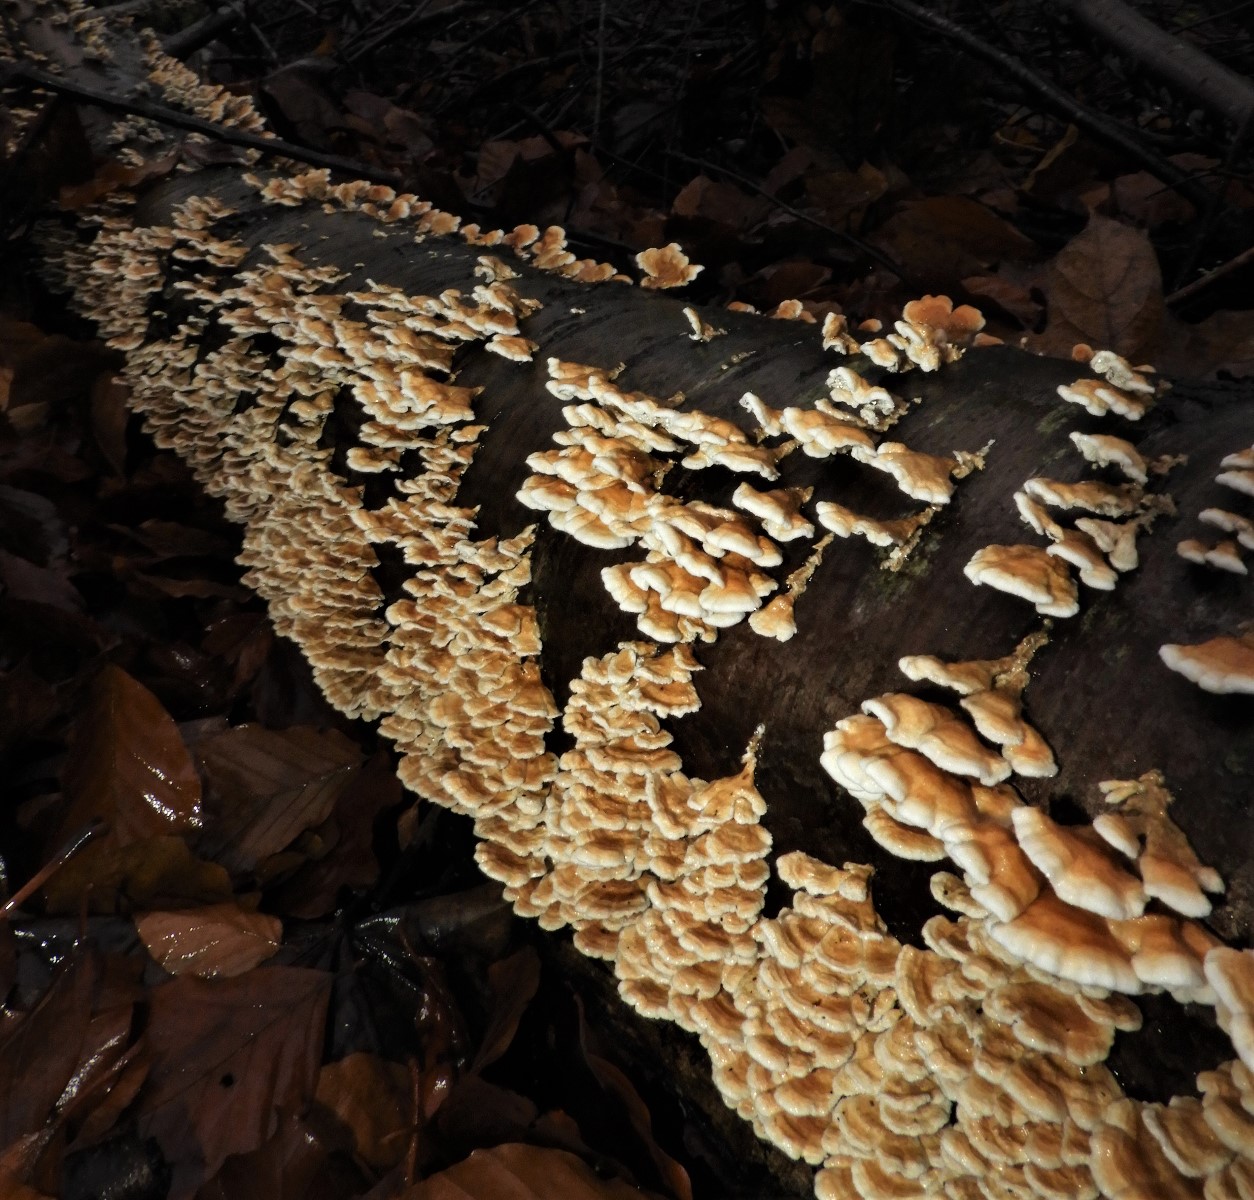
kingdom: Fungi
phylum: Basidiomycota
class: Agaricomycetes
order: Amylocorticiales
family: Amylocorticiaceae
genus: Plicaturopsis
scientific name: Plicaturopsis crispa
